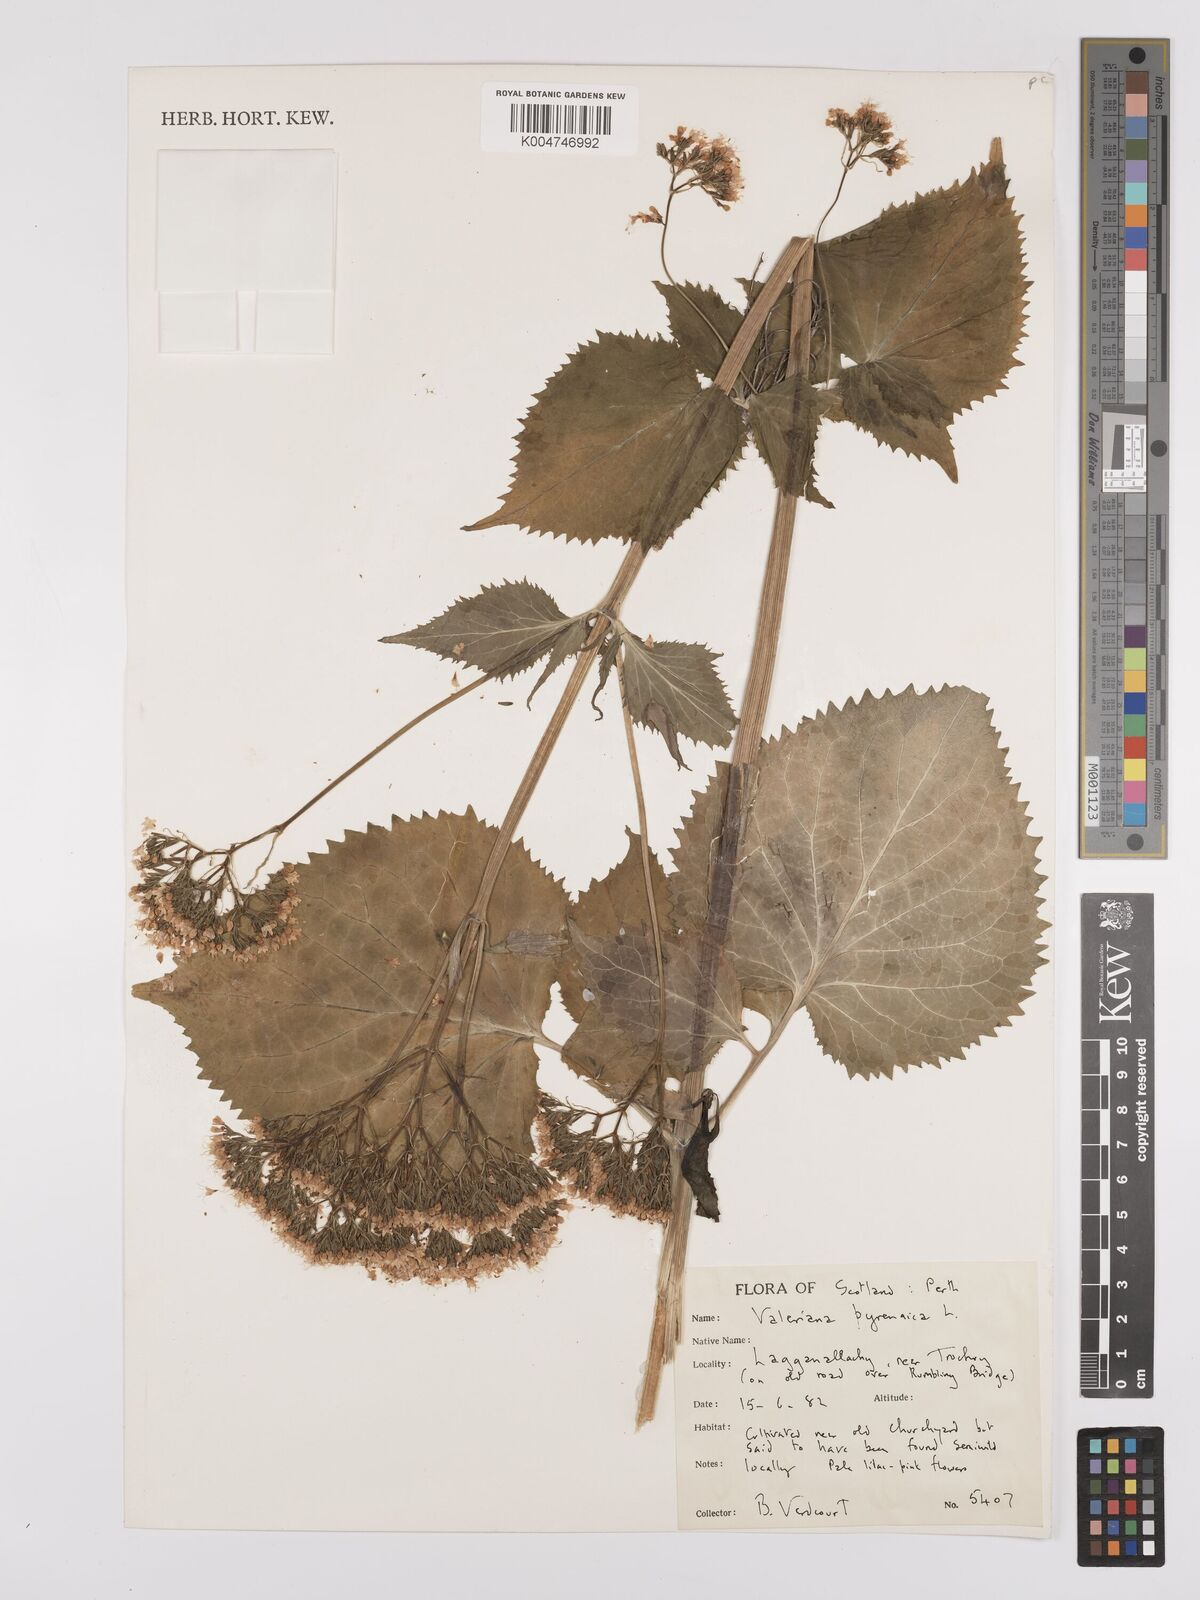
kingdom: Plantae
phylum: Tracheophyta
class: Magnoliopsida
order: Dipsacales
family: Caprifoliaceae
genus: Valeriana
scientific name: Valeriana pyrenaica
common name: Pyrenean valerian
